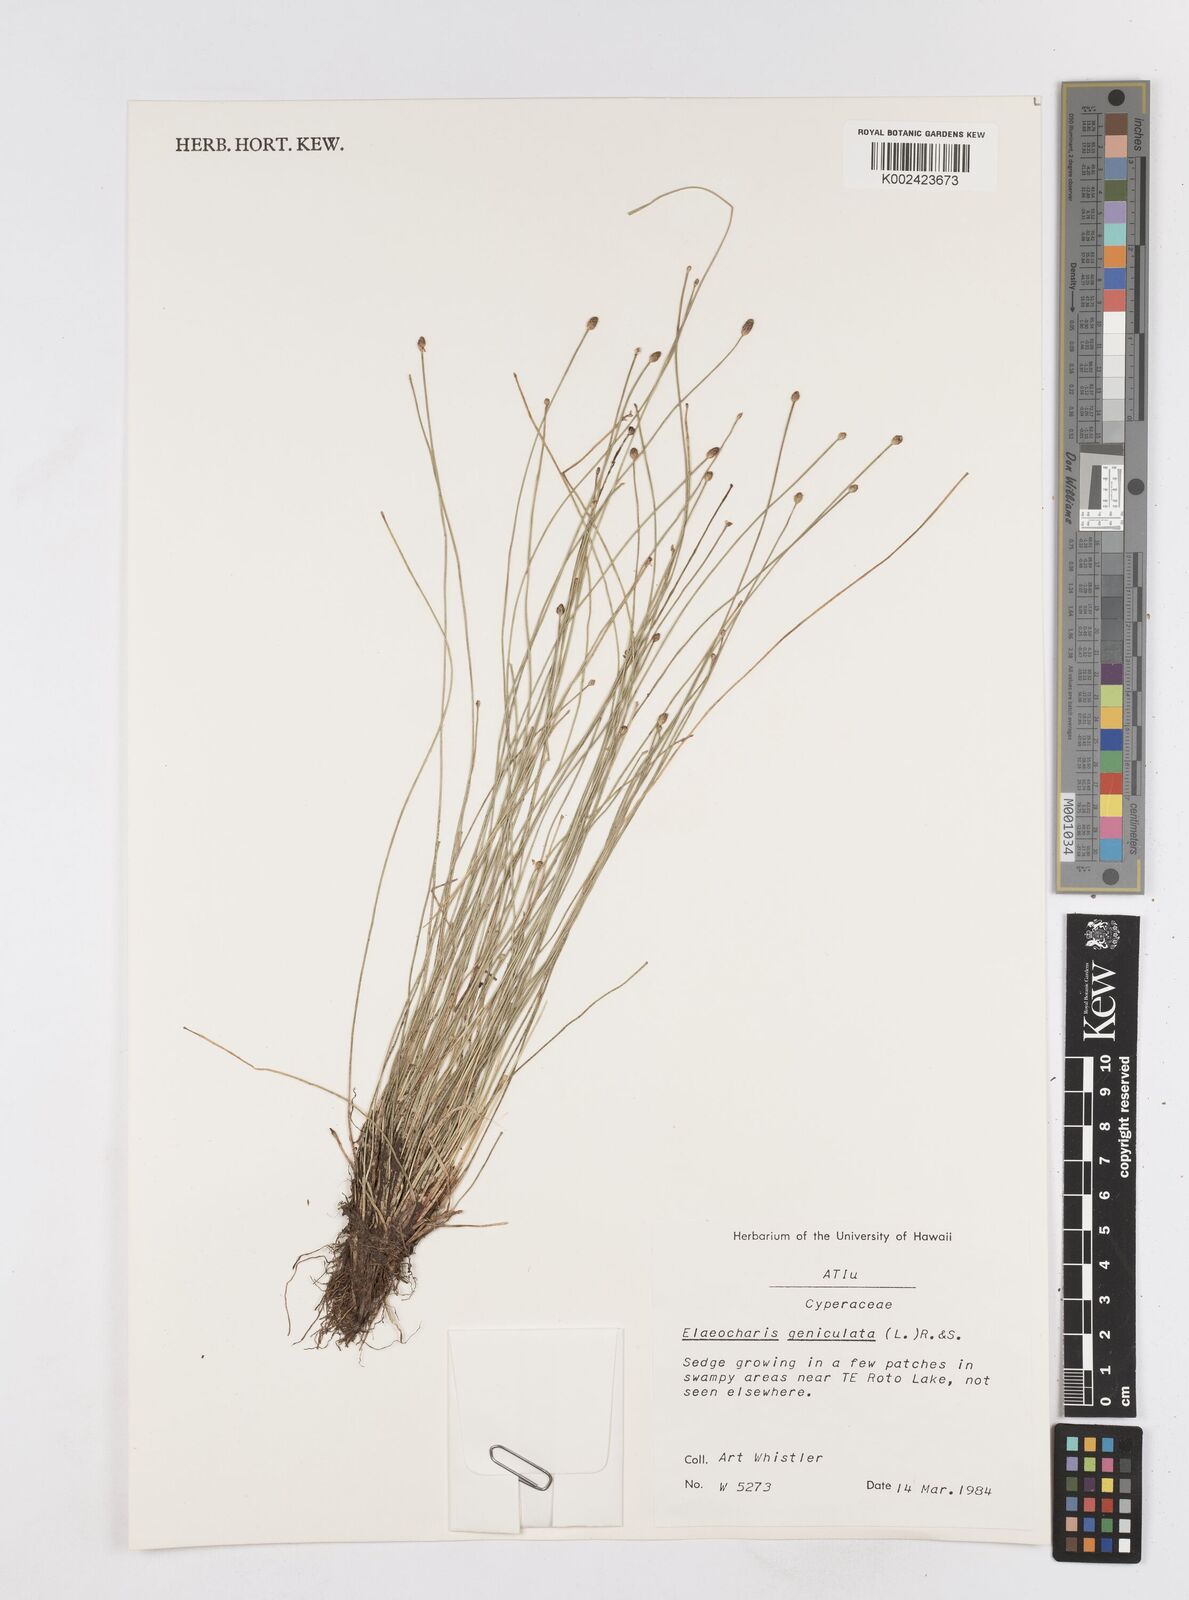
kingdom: Plantae
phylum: Tracheophyta
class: Liliopsida
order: Poales
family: Cyperaceae
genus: Eleocharis
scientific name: Eleocharis geniculata
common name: Canada spikesedge
